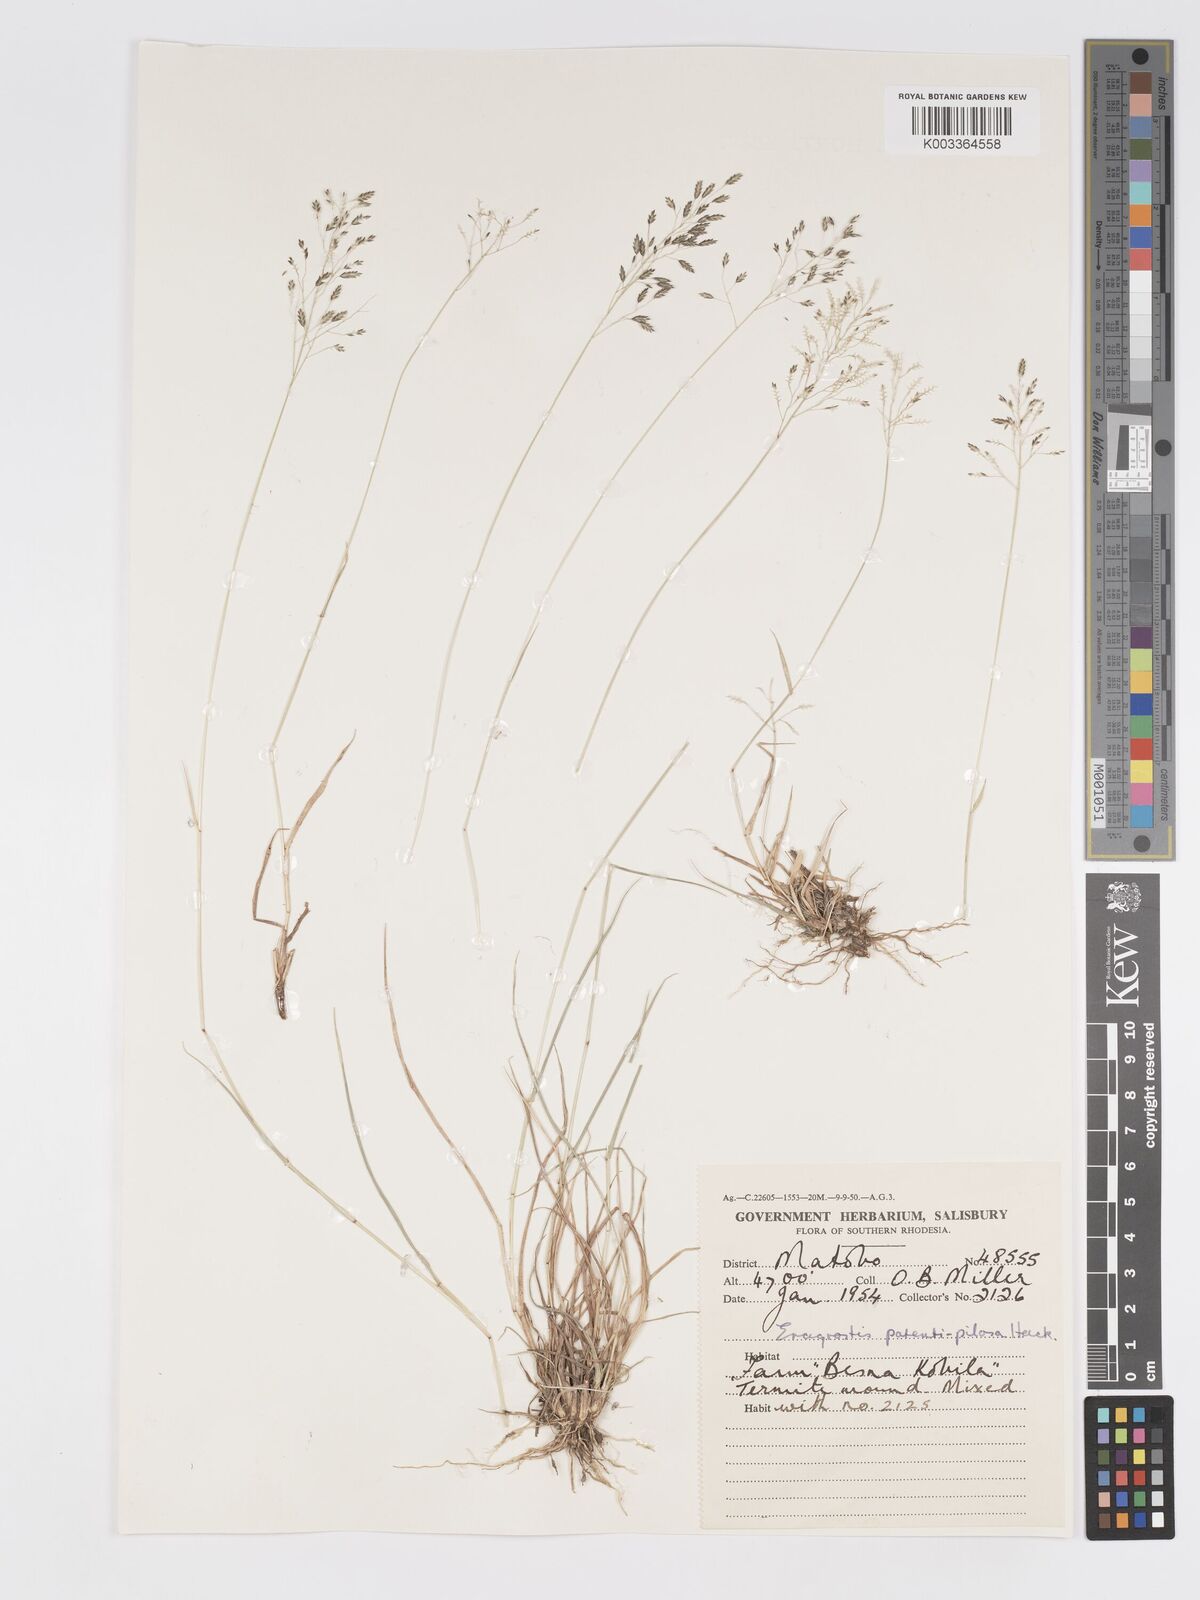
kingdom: Plantae
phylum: Tracheophyta
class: Liliopsida
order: Poales
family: Poaceae
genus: Eragrostis
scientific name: Eragrostis patentipilosa
